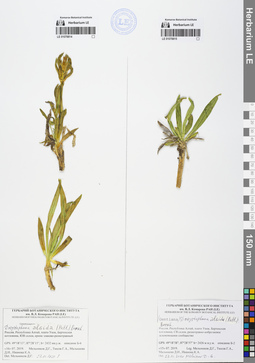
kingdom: Plantae
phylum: Tracheophyta
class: Magnoliopsida
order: Gentianales
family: Gentianaceae
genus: Gentiana
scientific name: Gentiana algida
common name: Arctic gentian
